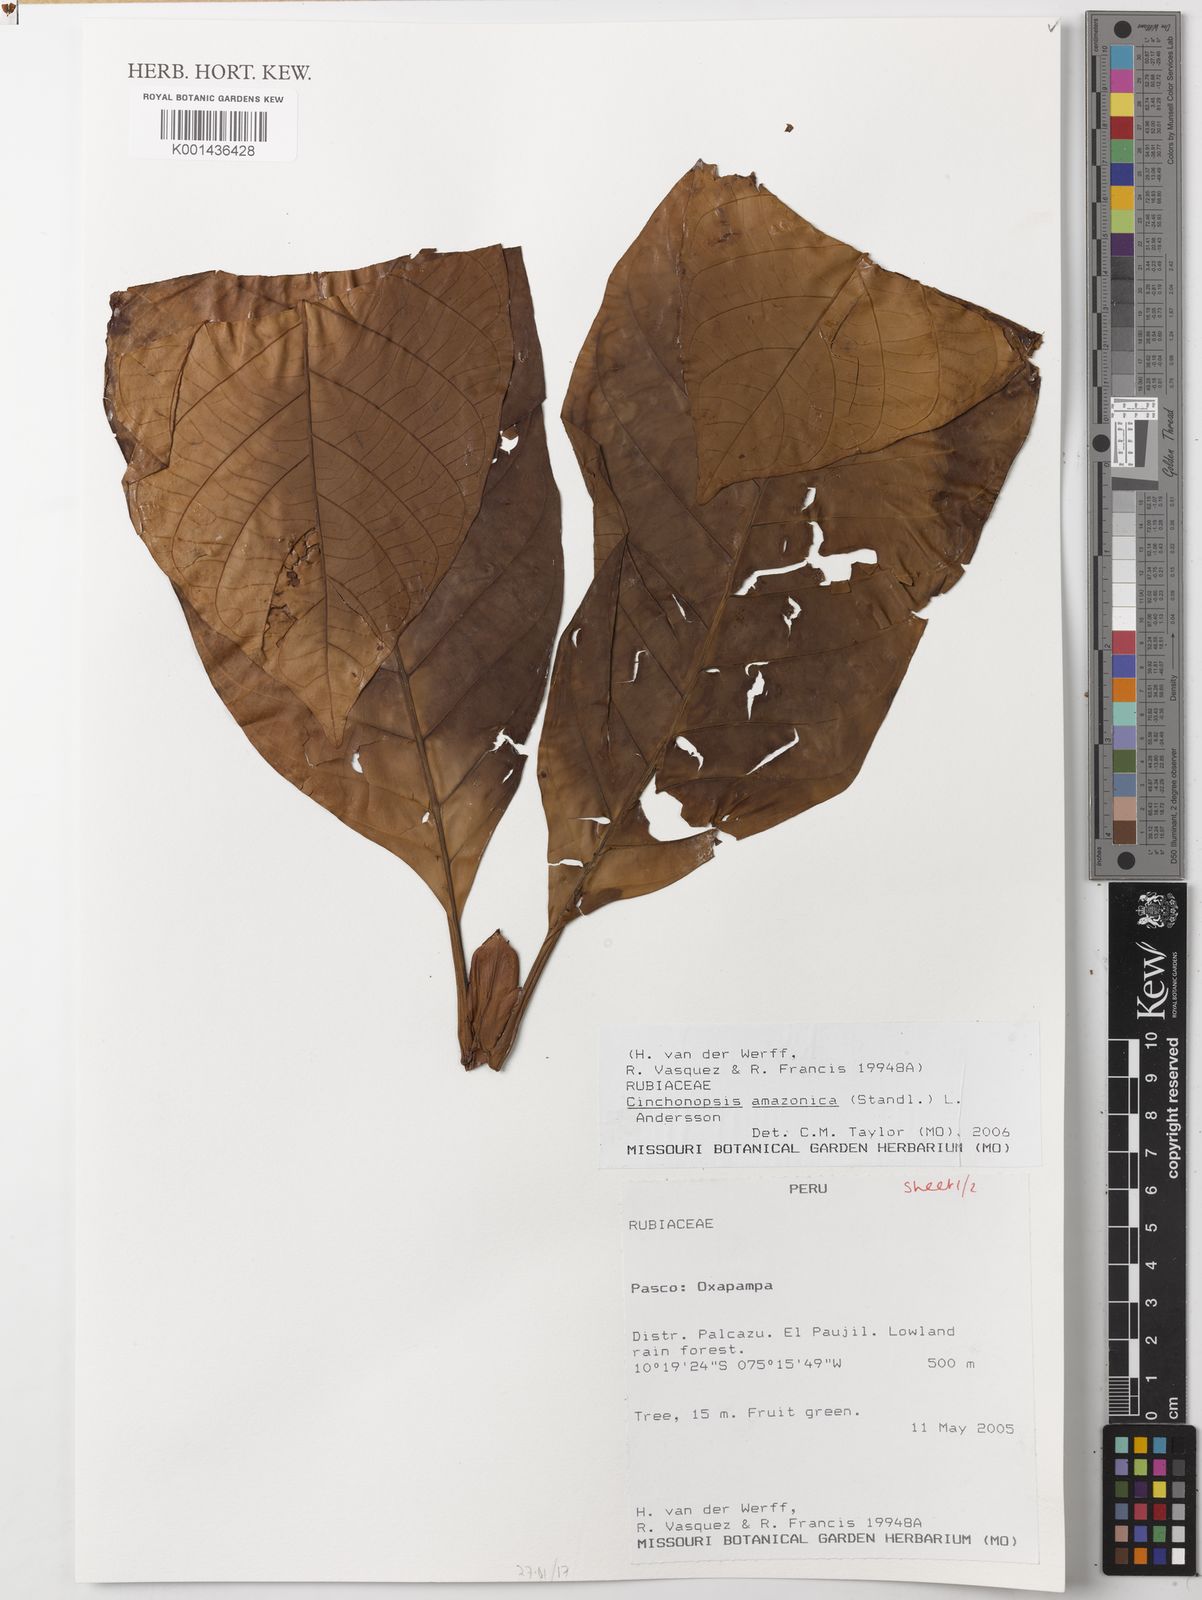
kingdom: Plantae
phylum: Tracheophyta
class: Magnoliopsida
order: Gentianales
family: Rubiaceae
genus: Cinchonopsis
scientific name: Cinchonopsis amazonica
